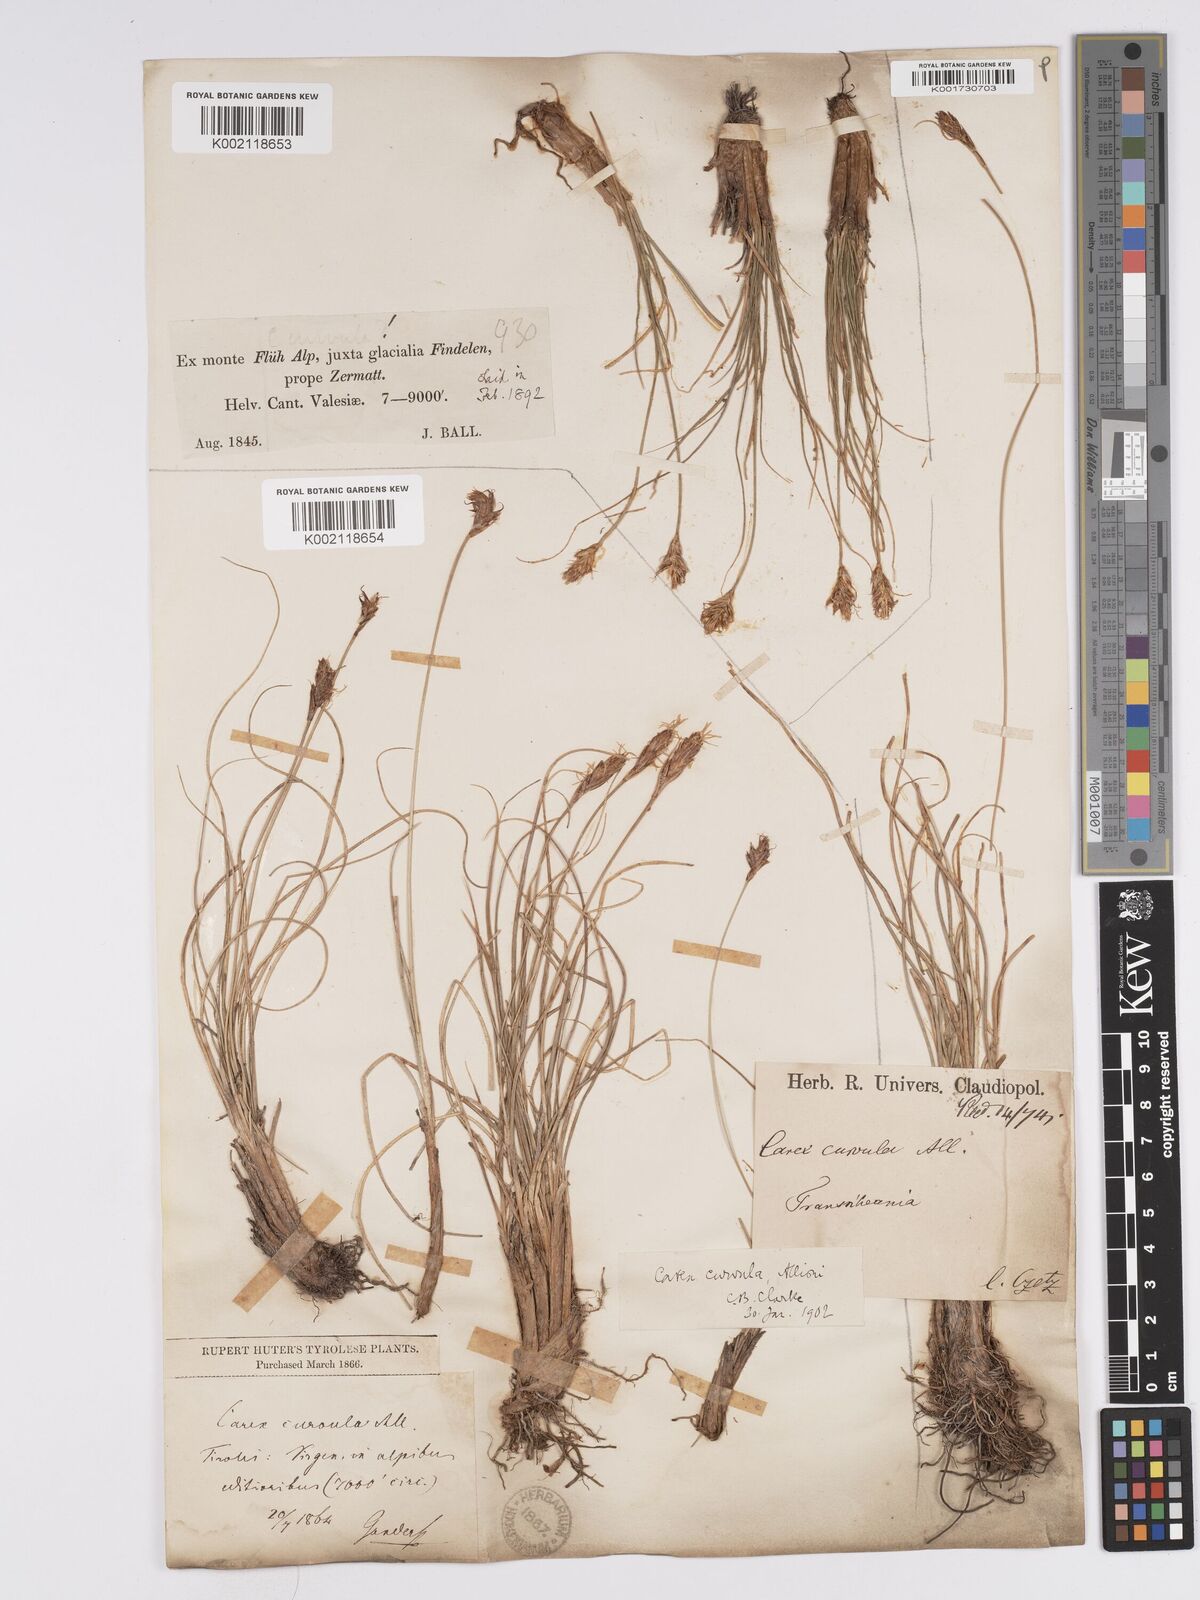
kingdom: Plantae
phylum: Tracheophyta
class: Liliopsida
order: Poales
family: Cyperaceae
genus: Carex
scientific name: Carex curvula
